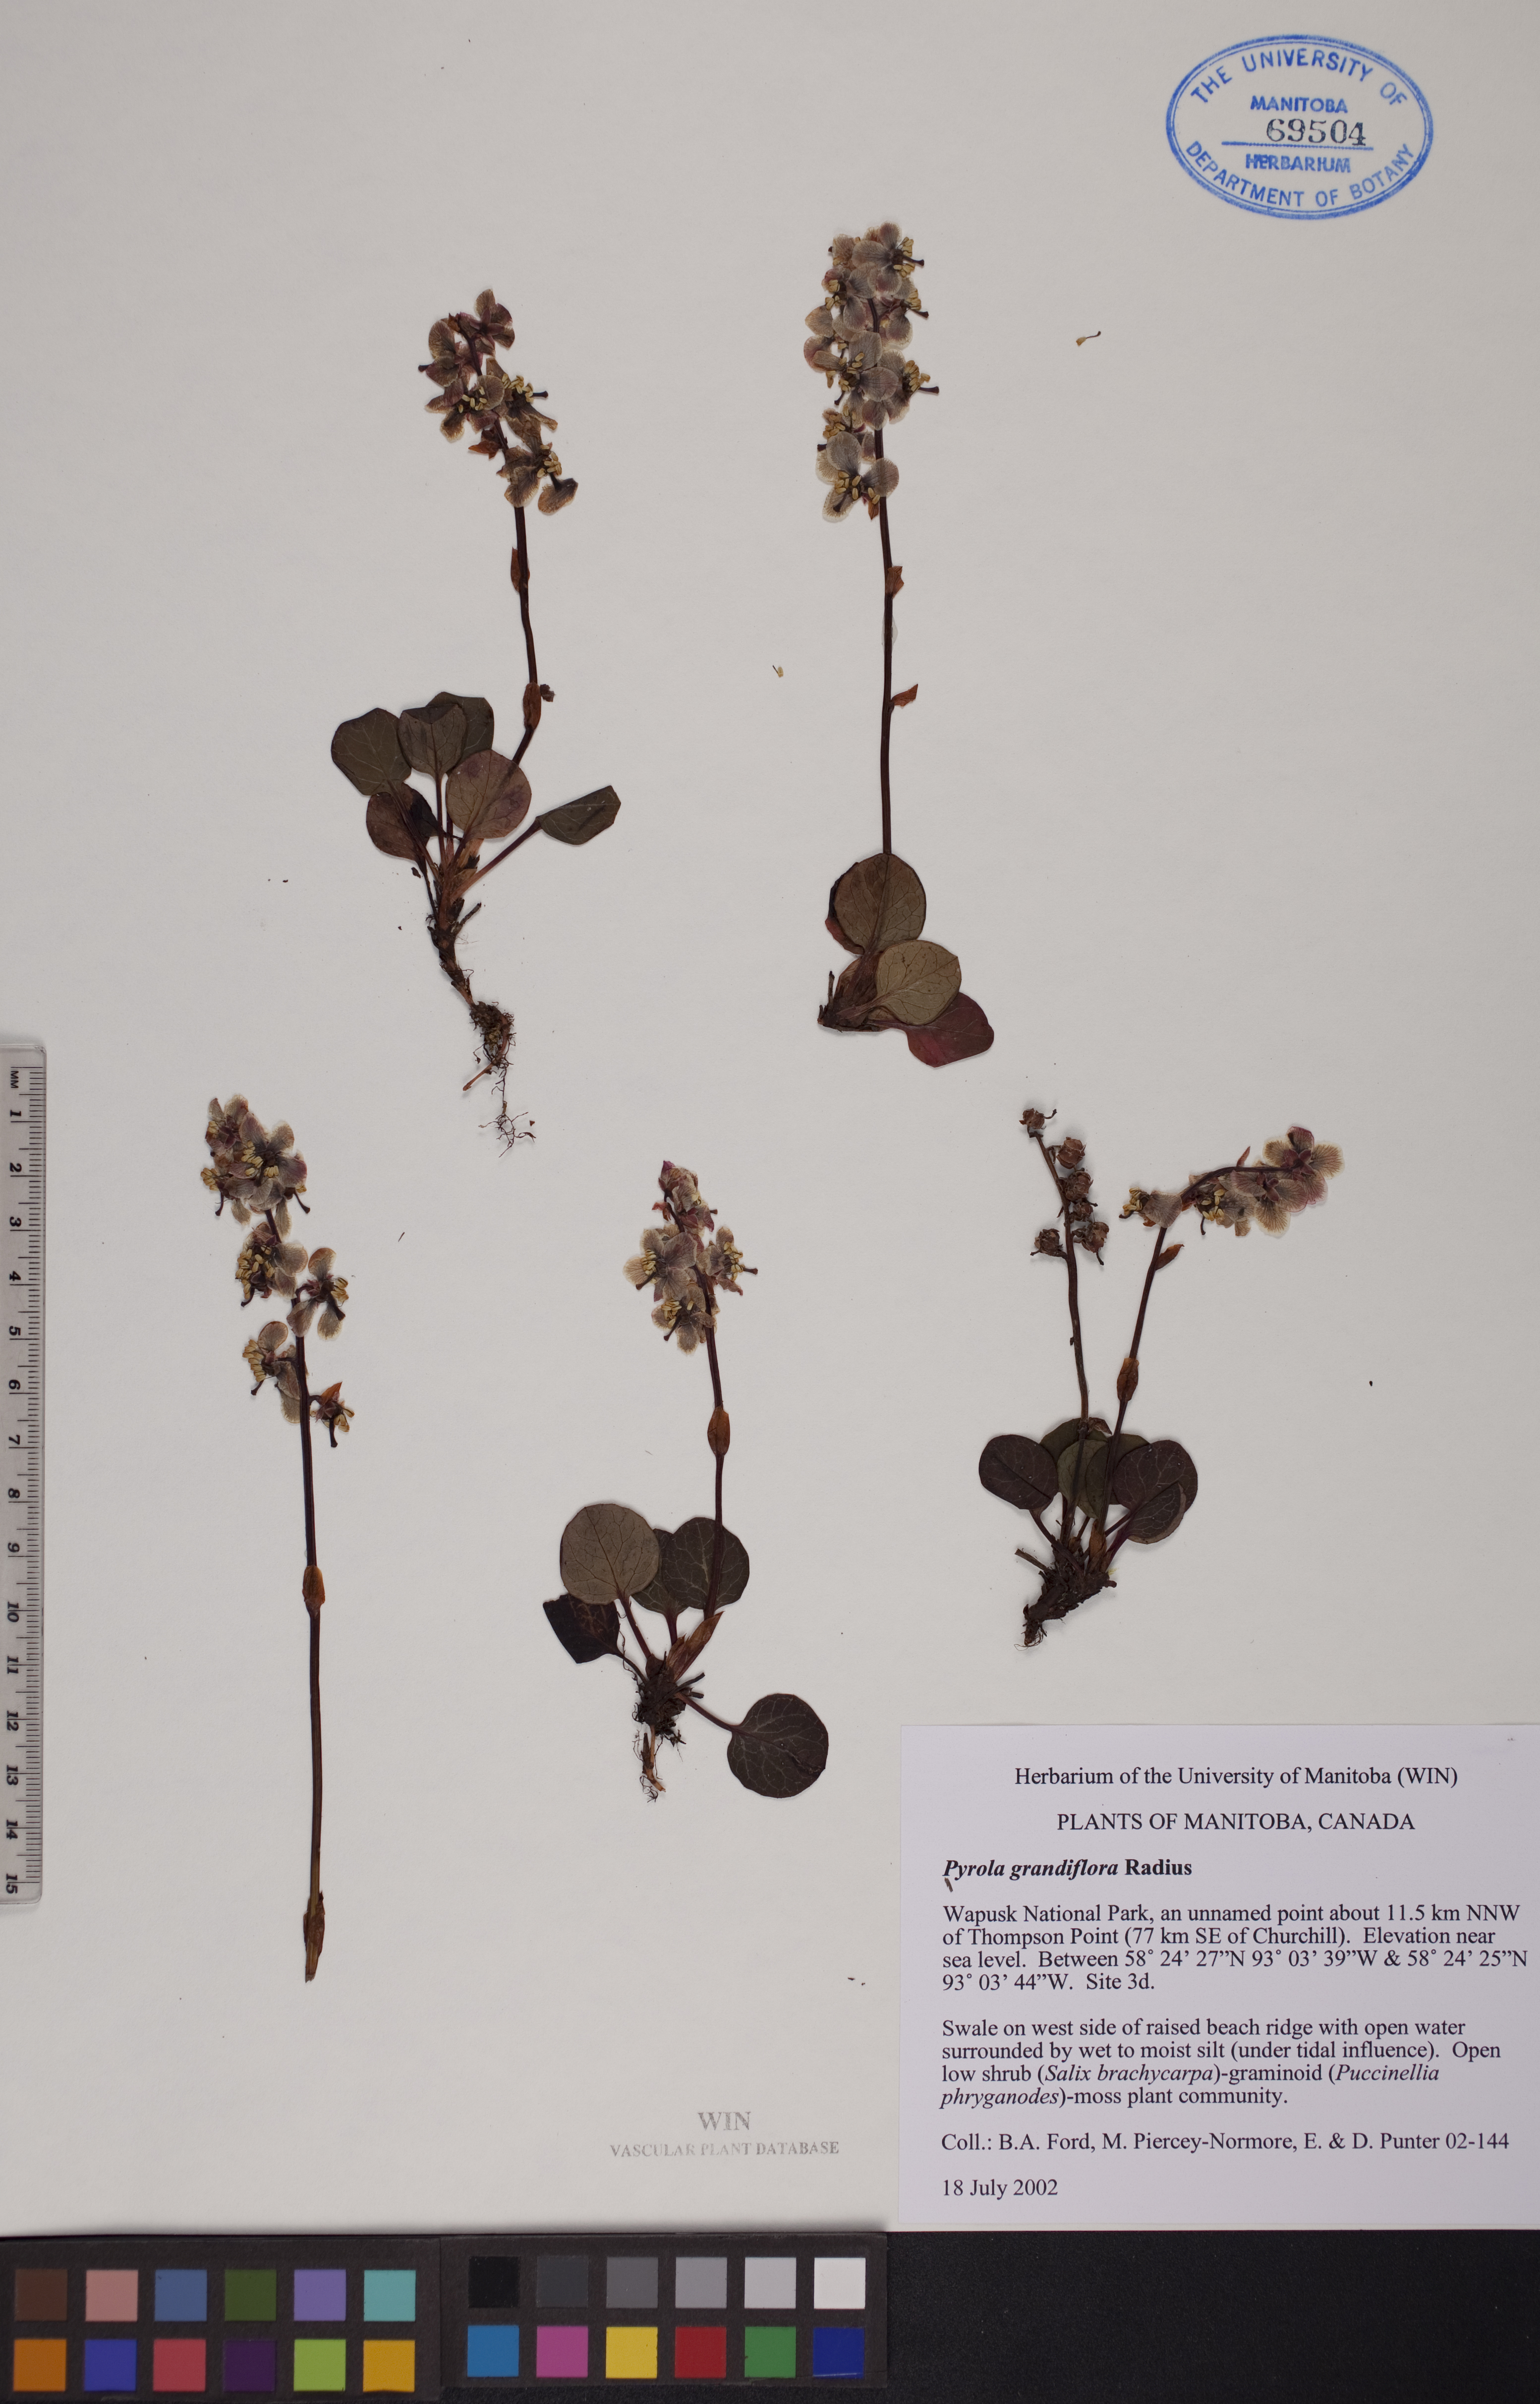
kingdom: Plantae
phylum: Tracheophyta
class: Magnoliopsida
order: Ericales
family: Ericaceae
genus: Pyrola
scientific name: Pyrola grandiflora
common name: Arctic pyrola
